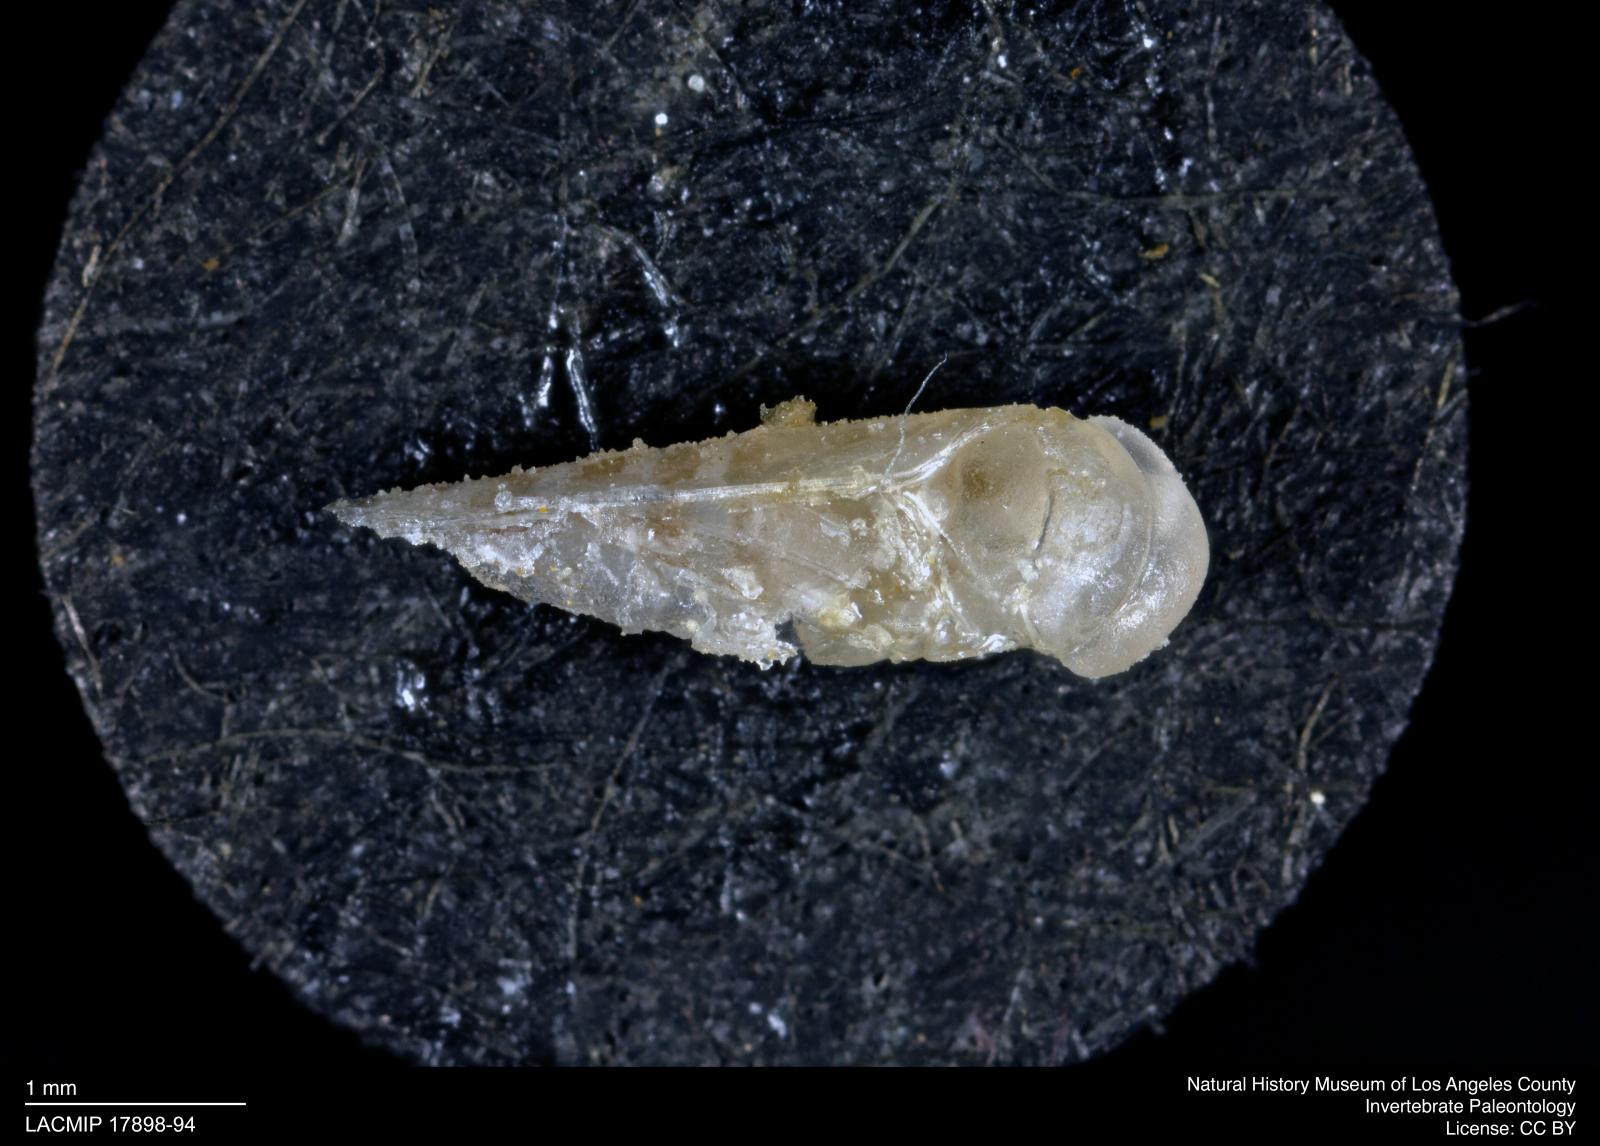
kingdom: Animalia
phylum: Arthropoda
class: Insecta
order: Hemiptera
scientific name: Hemiptera
